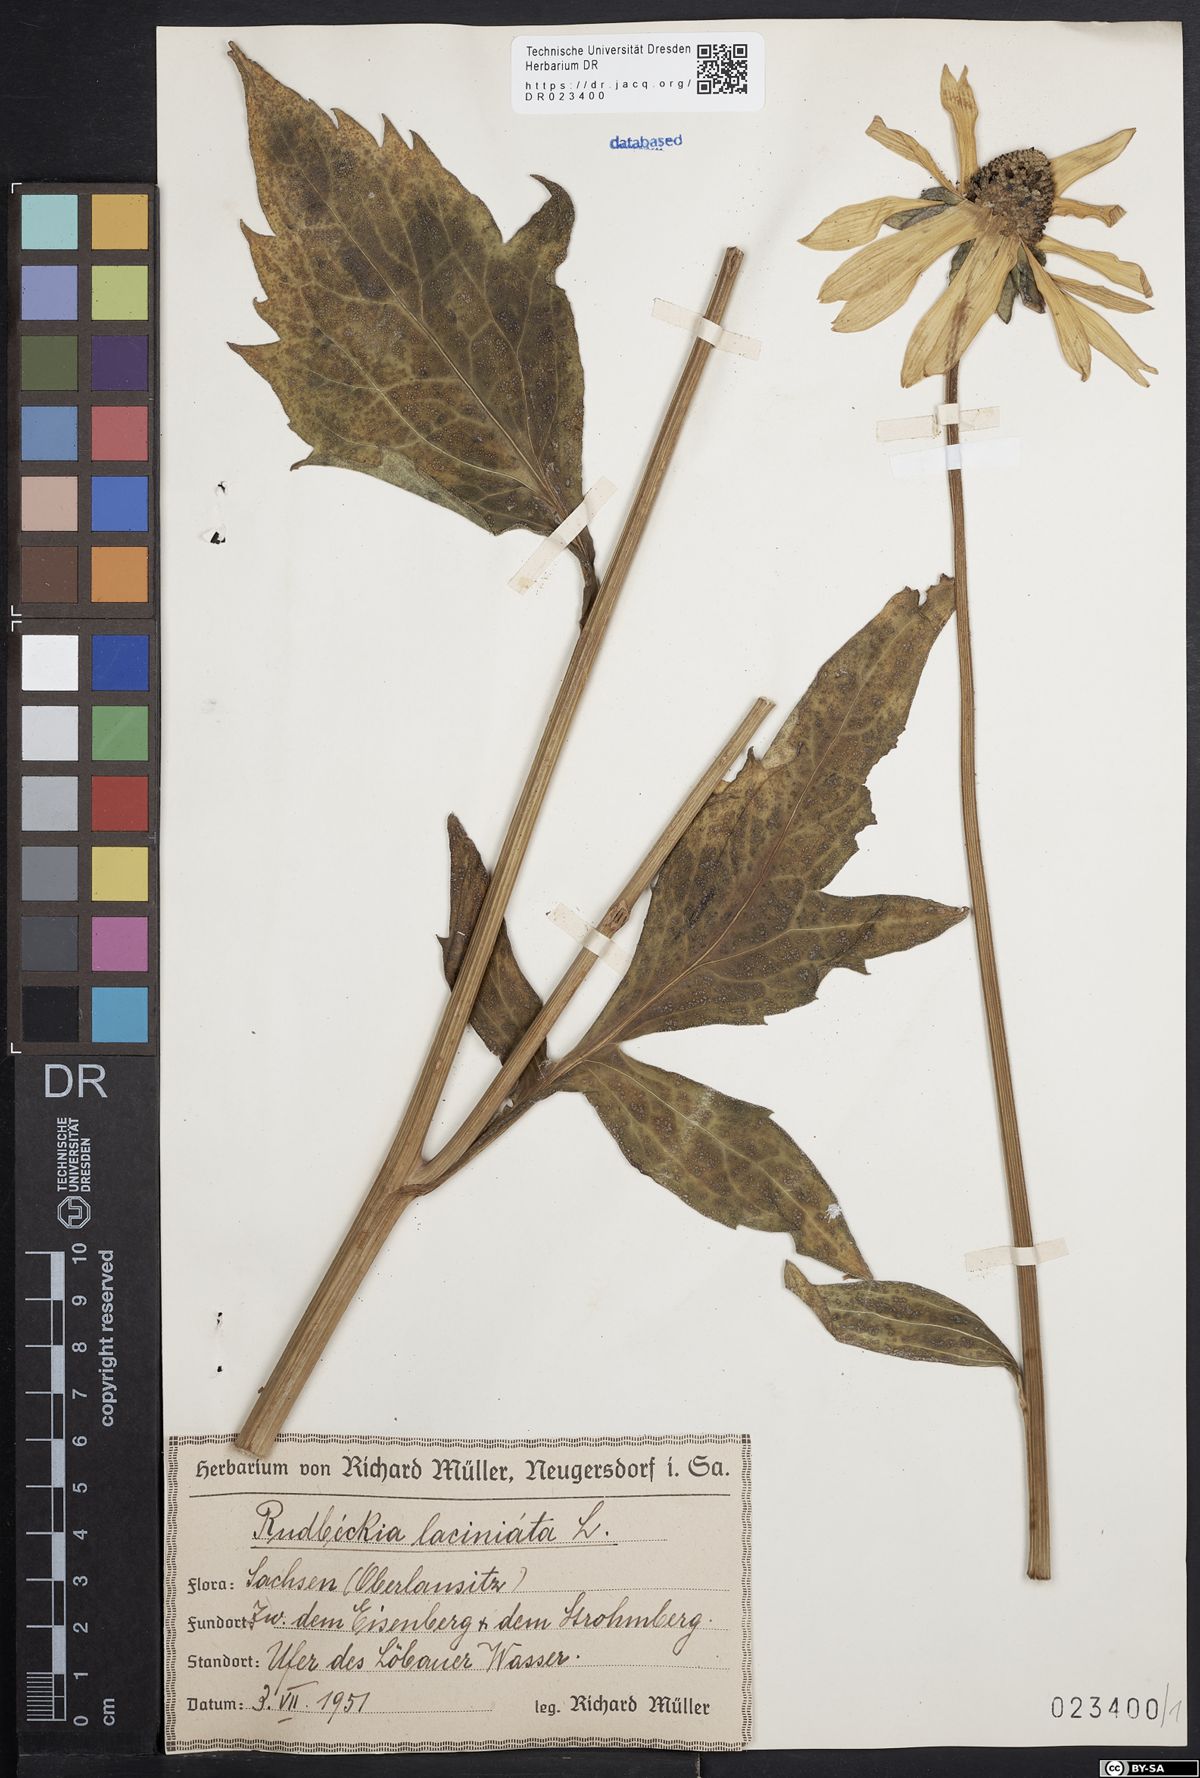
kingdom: Plantae
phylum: Tracheophyta
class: Magnoliopsida
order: Asterales
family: Asteraceae
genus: Rudbeckia
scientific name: Rudbeckia laciniata
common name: Coneflower
